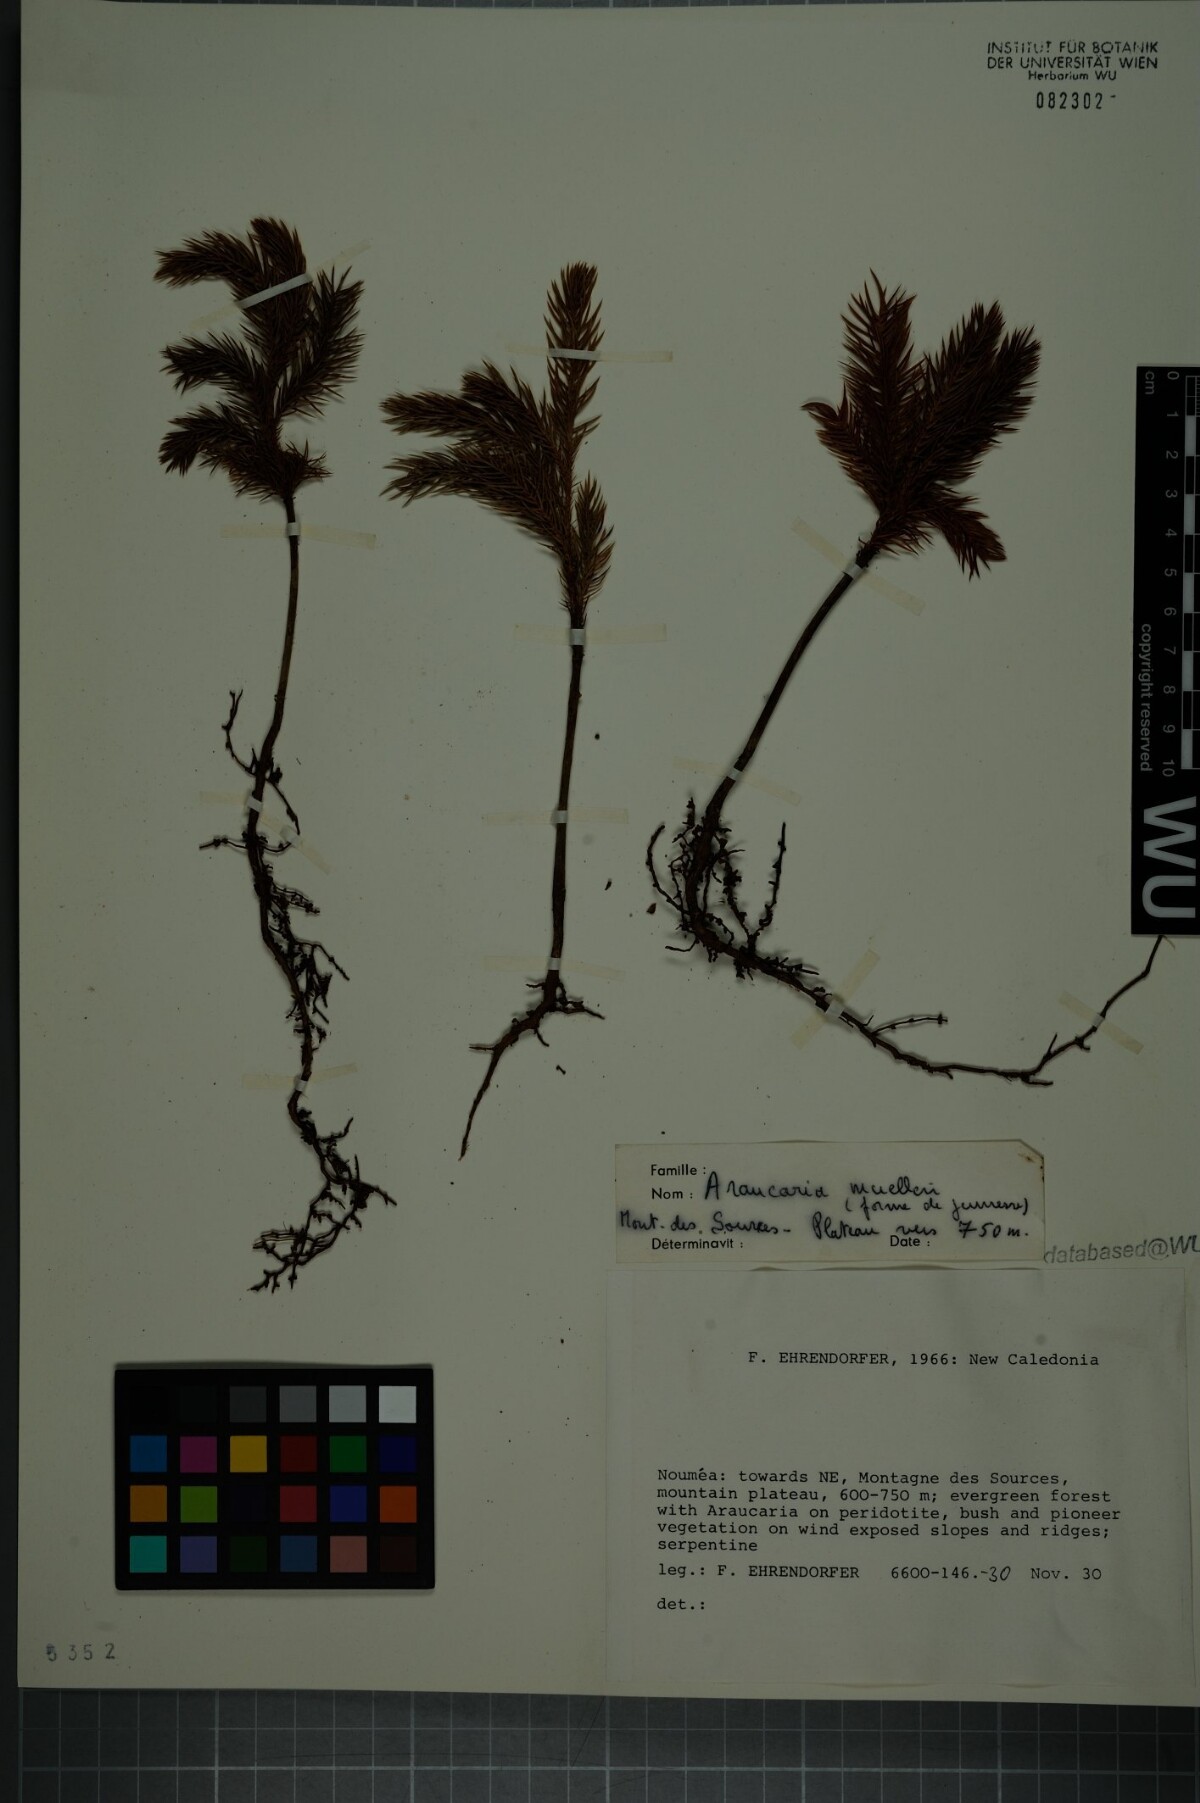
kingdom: Plantae
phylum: Tracheophyta
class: Pinopsida
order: Pinales
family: Araucariaceae
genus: Araucaria
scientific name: Araucaria muelleri
